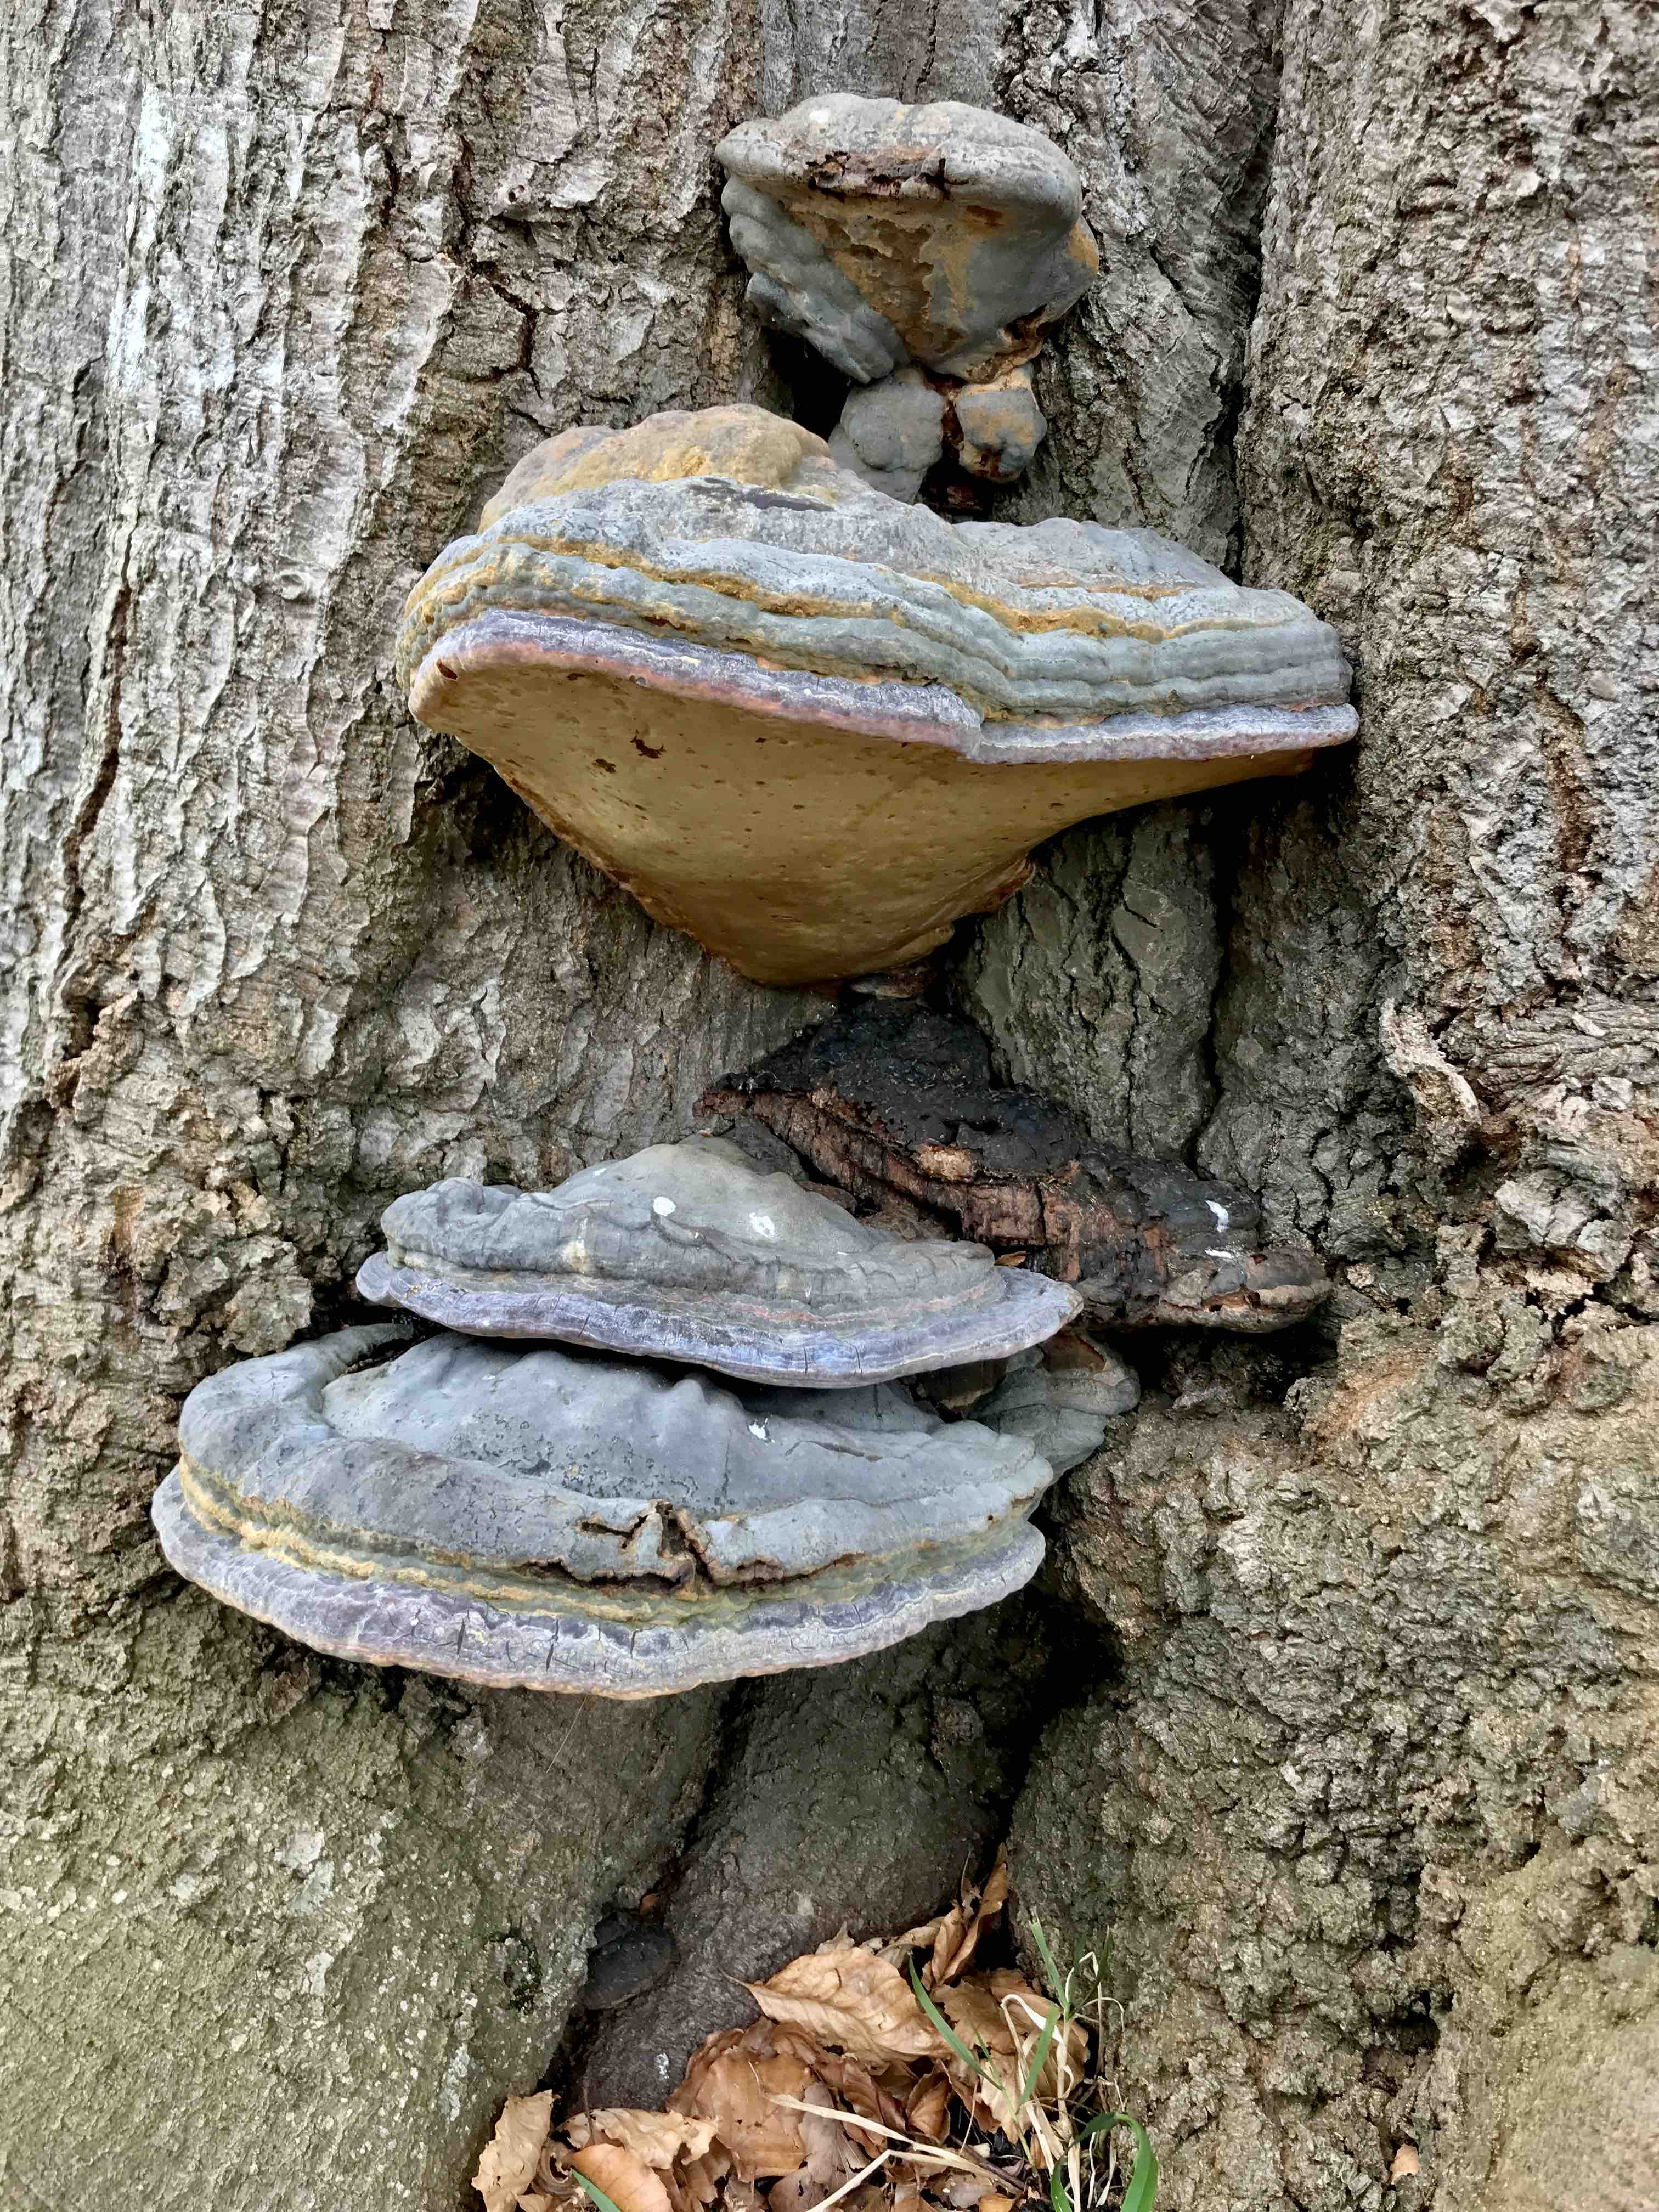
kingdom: Fungi
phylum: Basidiomycota
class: Agaricomycetes
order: Polyporales
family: Polyporaceae
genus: Ganoderma
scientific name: Ganoderma pfeifferi
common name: kobberrød lakporesvamp
